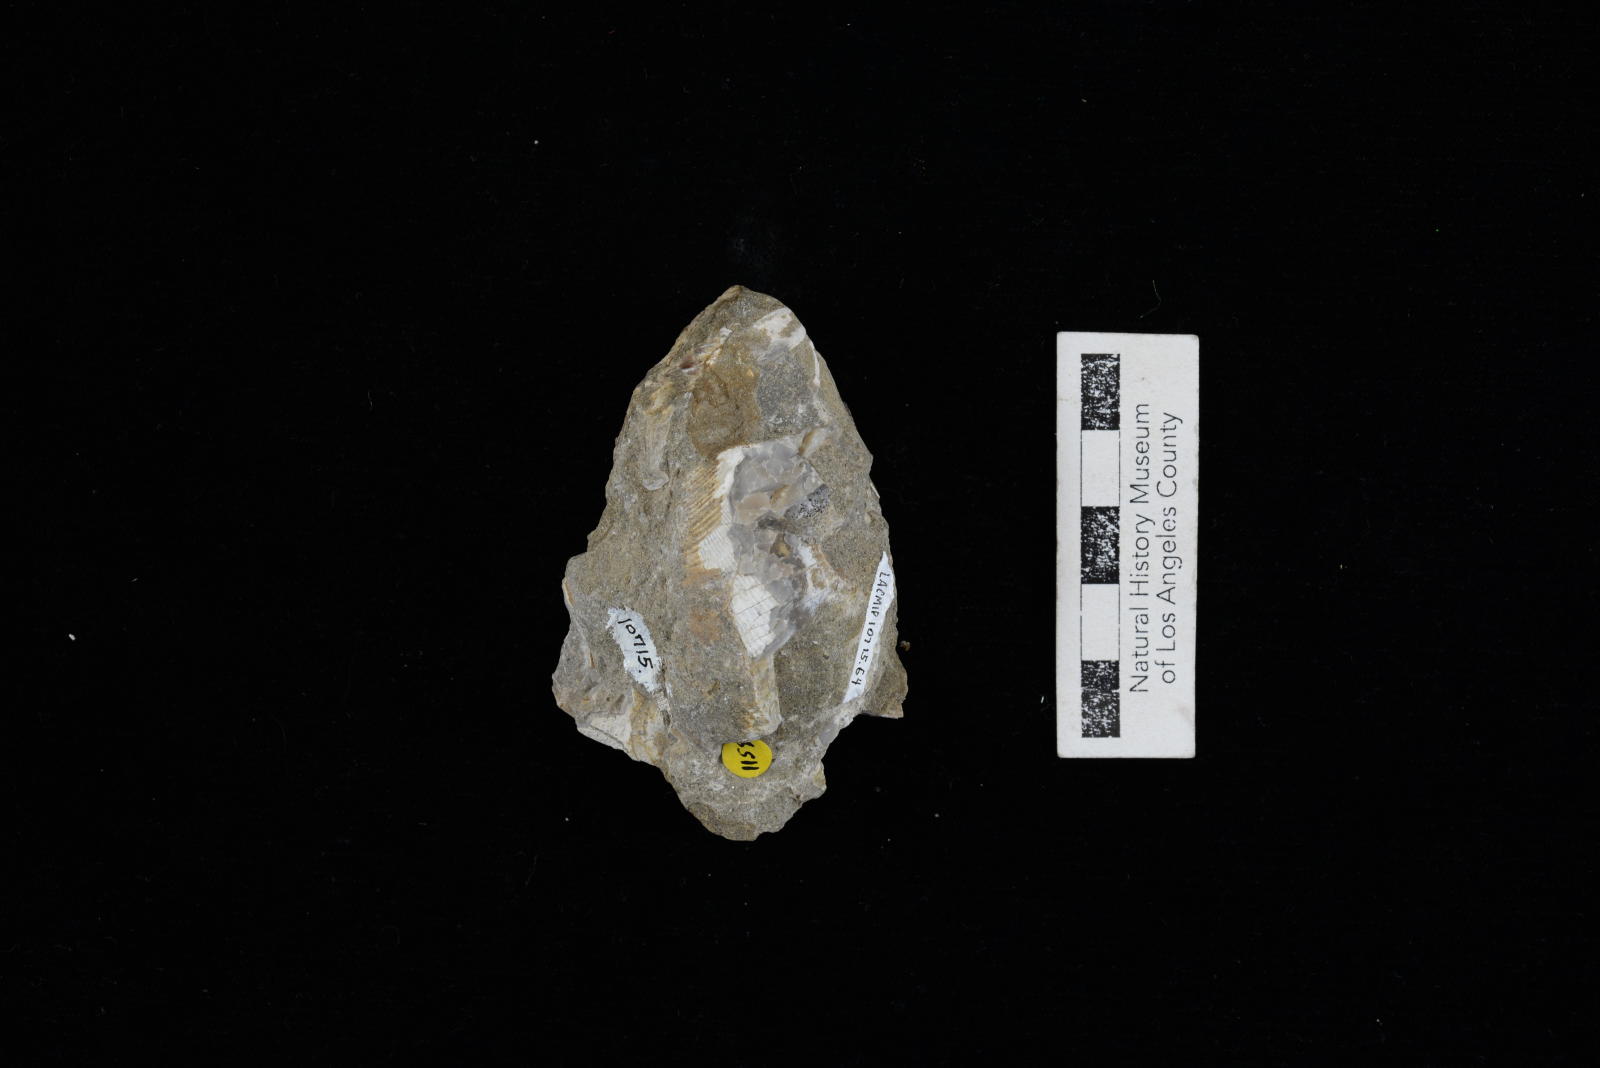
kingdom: Animalia
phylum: Mollusca
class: Gastropoda
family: Gyrodidae
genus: Gyrodes
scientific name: Gyrodes
